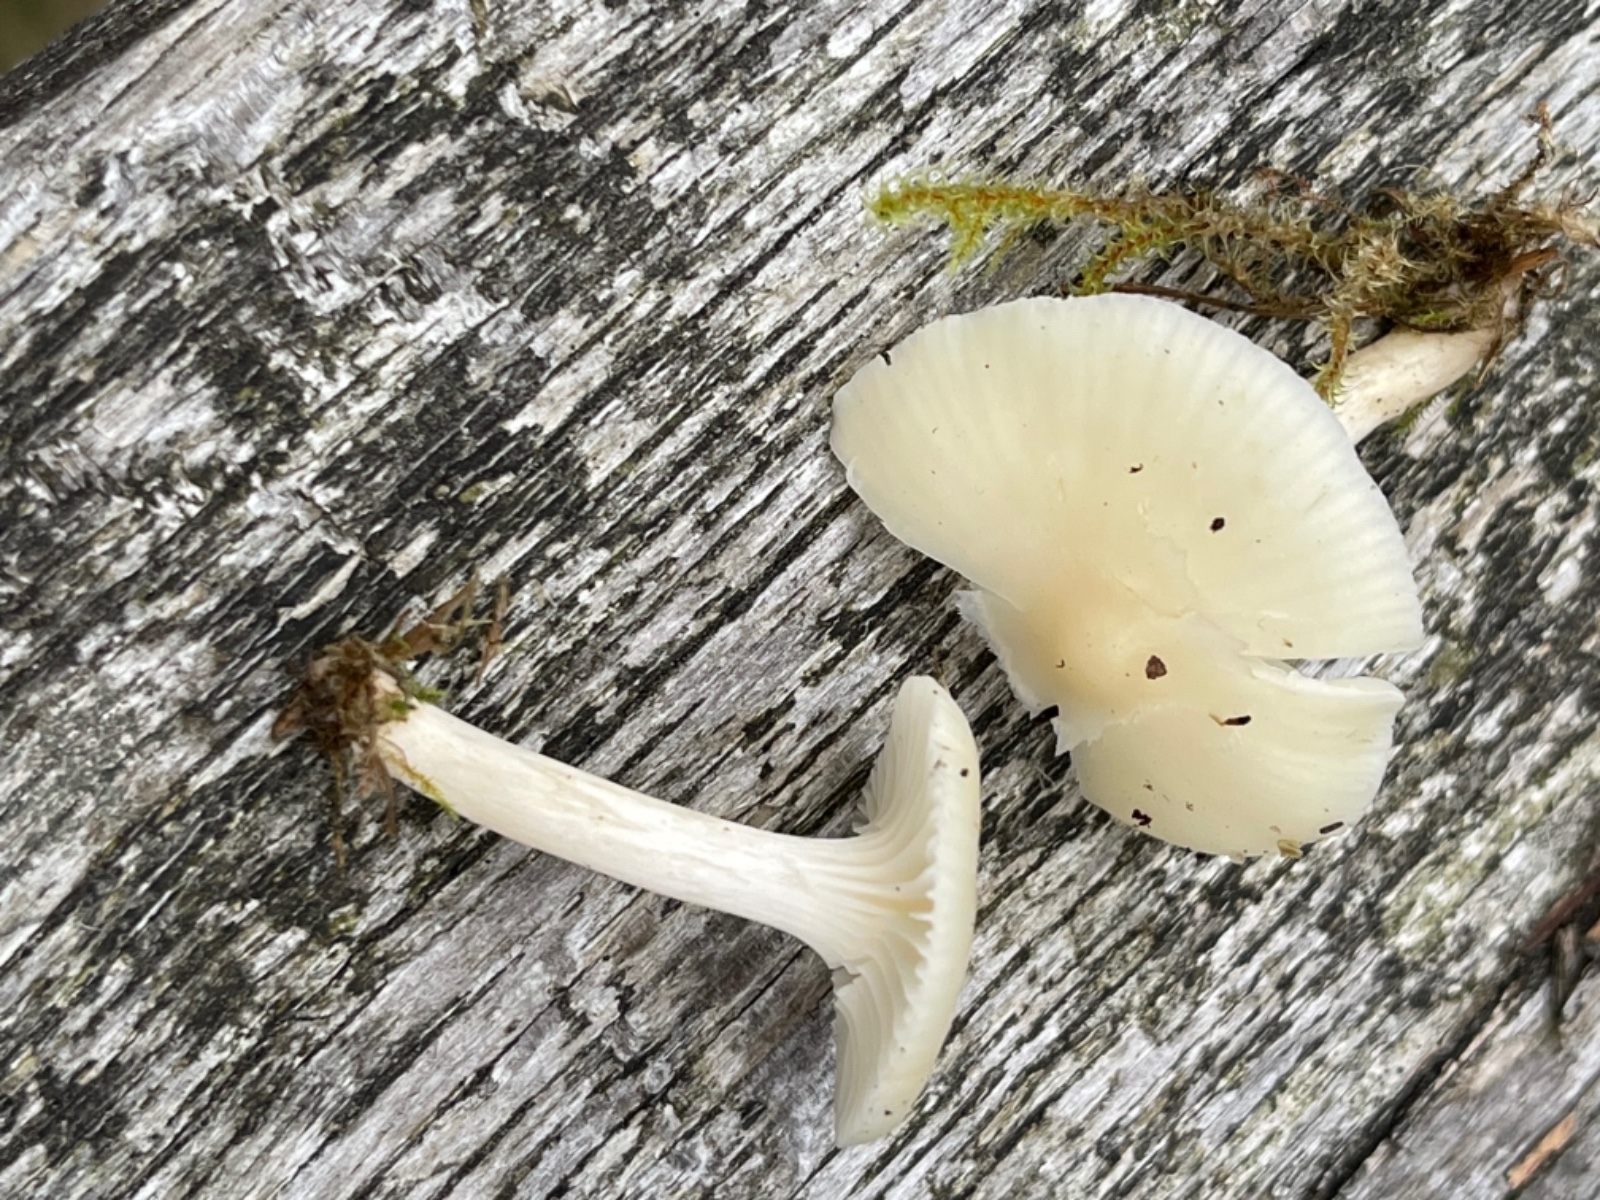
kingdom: Fungi
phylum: Basidiomycota
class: Agaricomycetes
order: Agaricales
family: Hygrophoraceae
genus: Cuphophyllus
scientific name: Cuphophyllus
